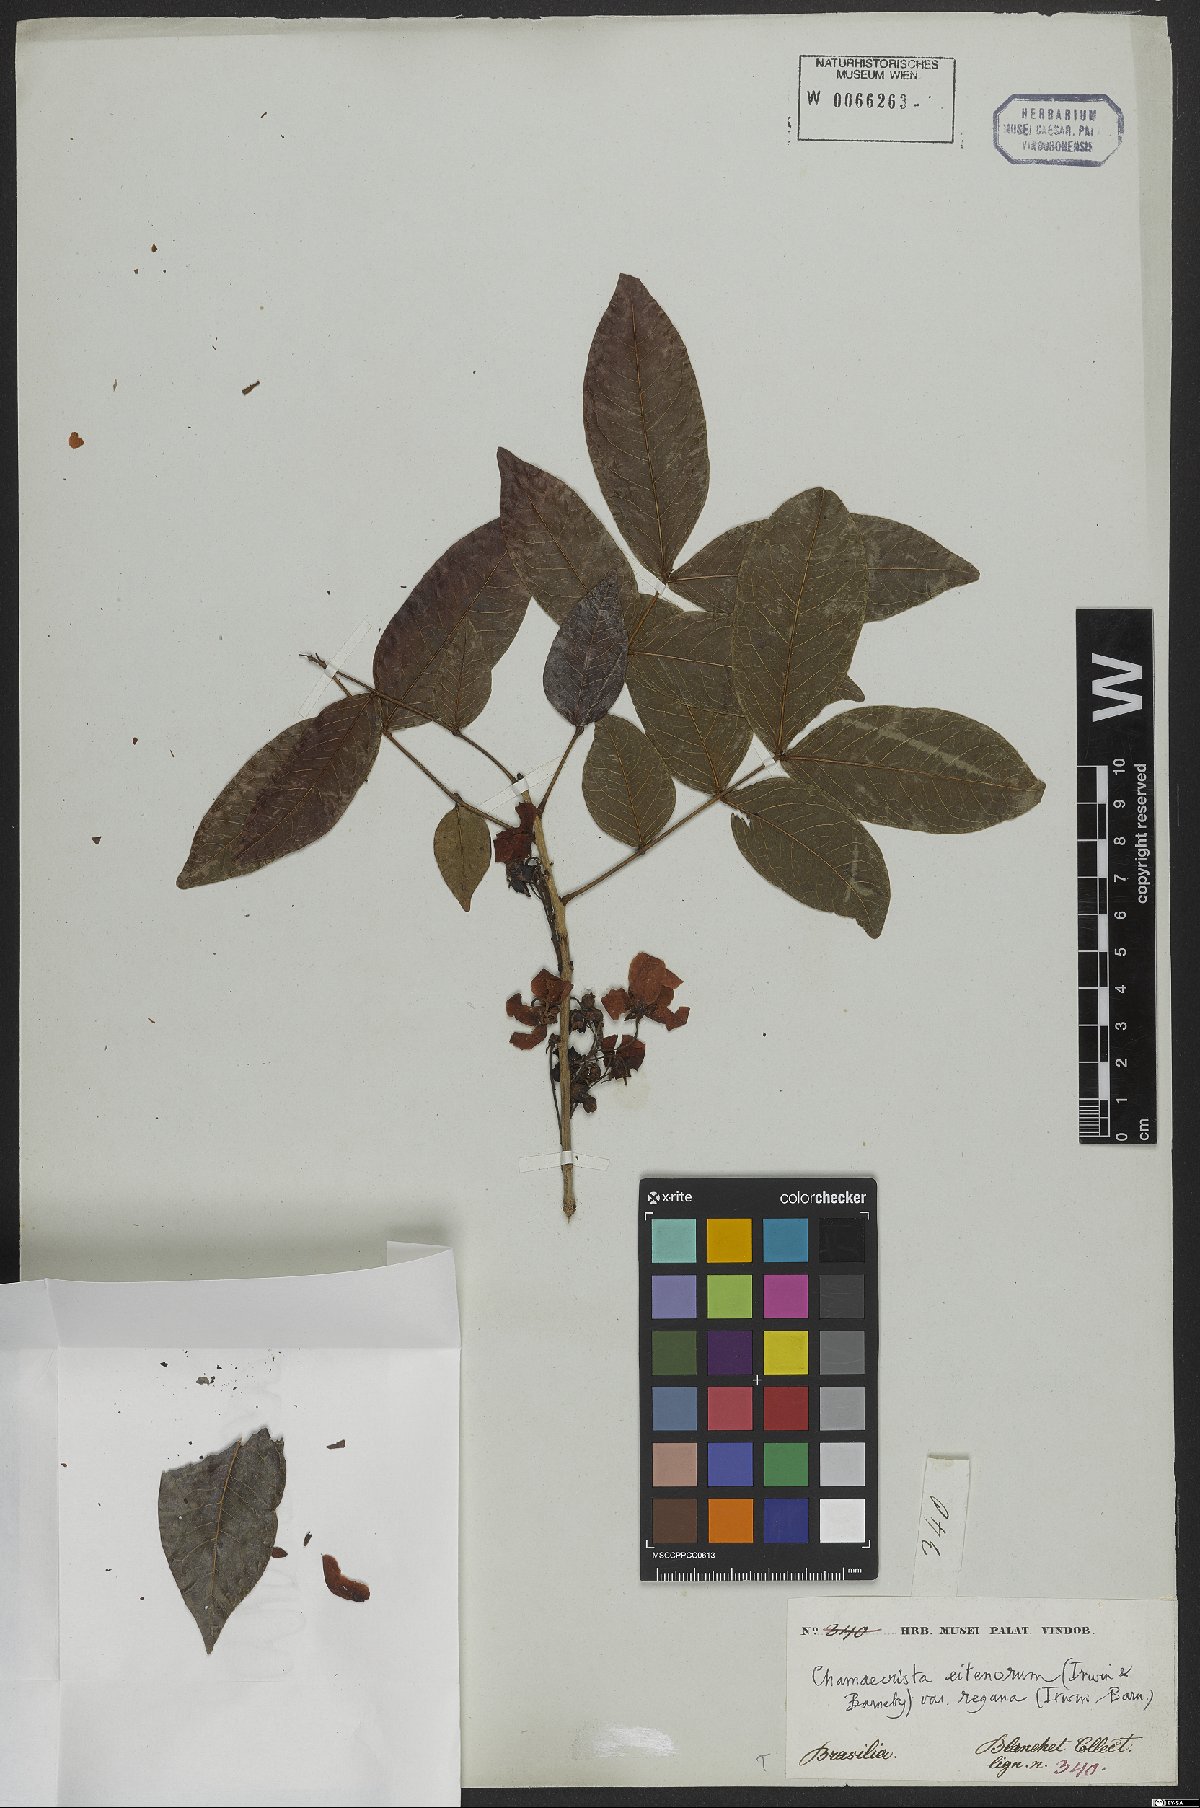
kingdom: Plantae
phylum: Tracheophyta
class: Magnoliopsida
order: Fabales
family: Fabaceae
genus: Chamaecrista
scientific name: Chamaecrista eitenorum
